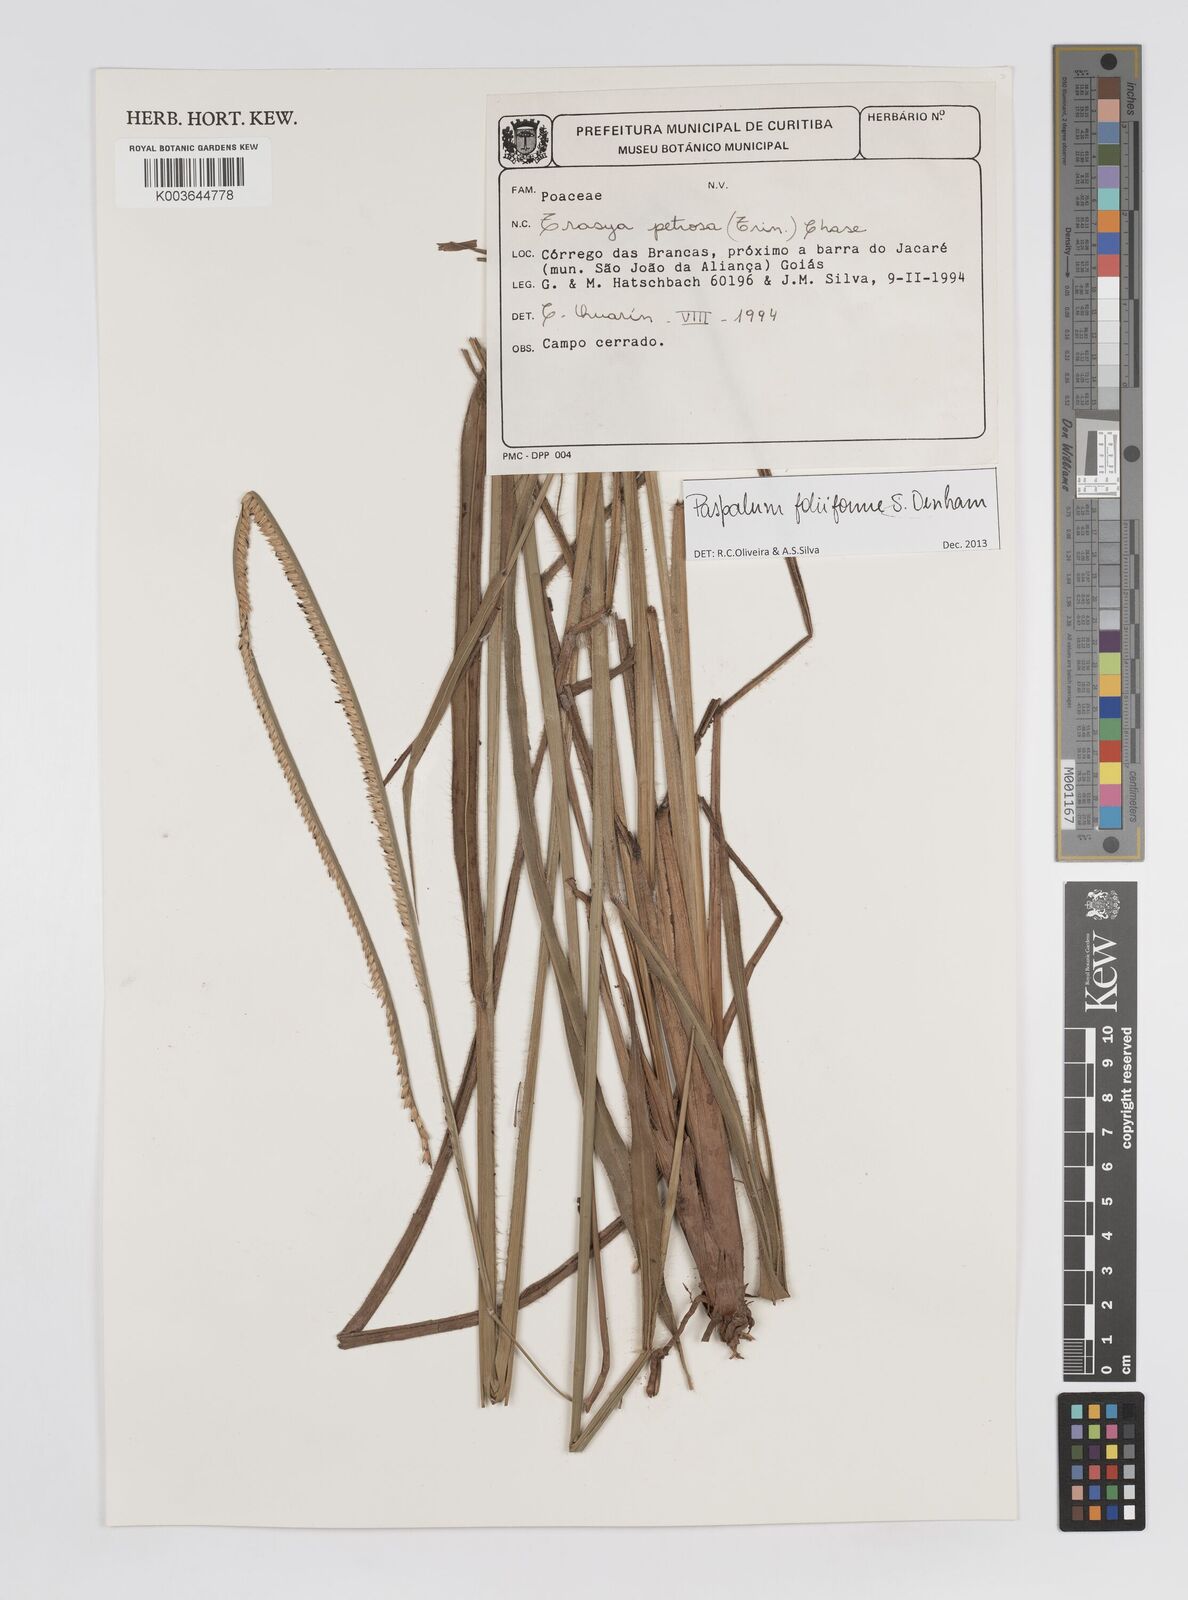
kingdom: Plantae
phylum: Tracheophyta
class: Liliopsida
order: Poales
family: Poaceae
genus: Paspalum
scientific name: Paspalum foliiforme
